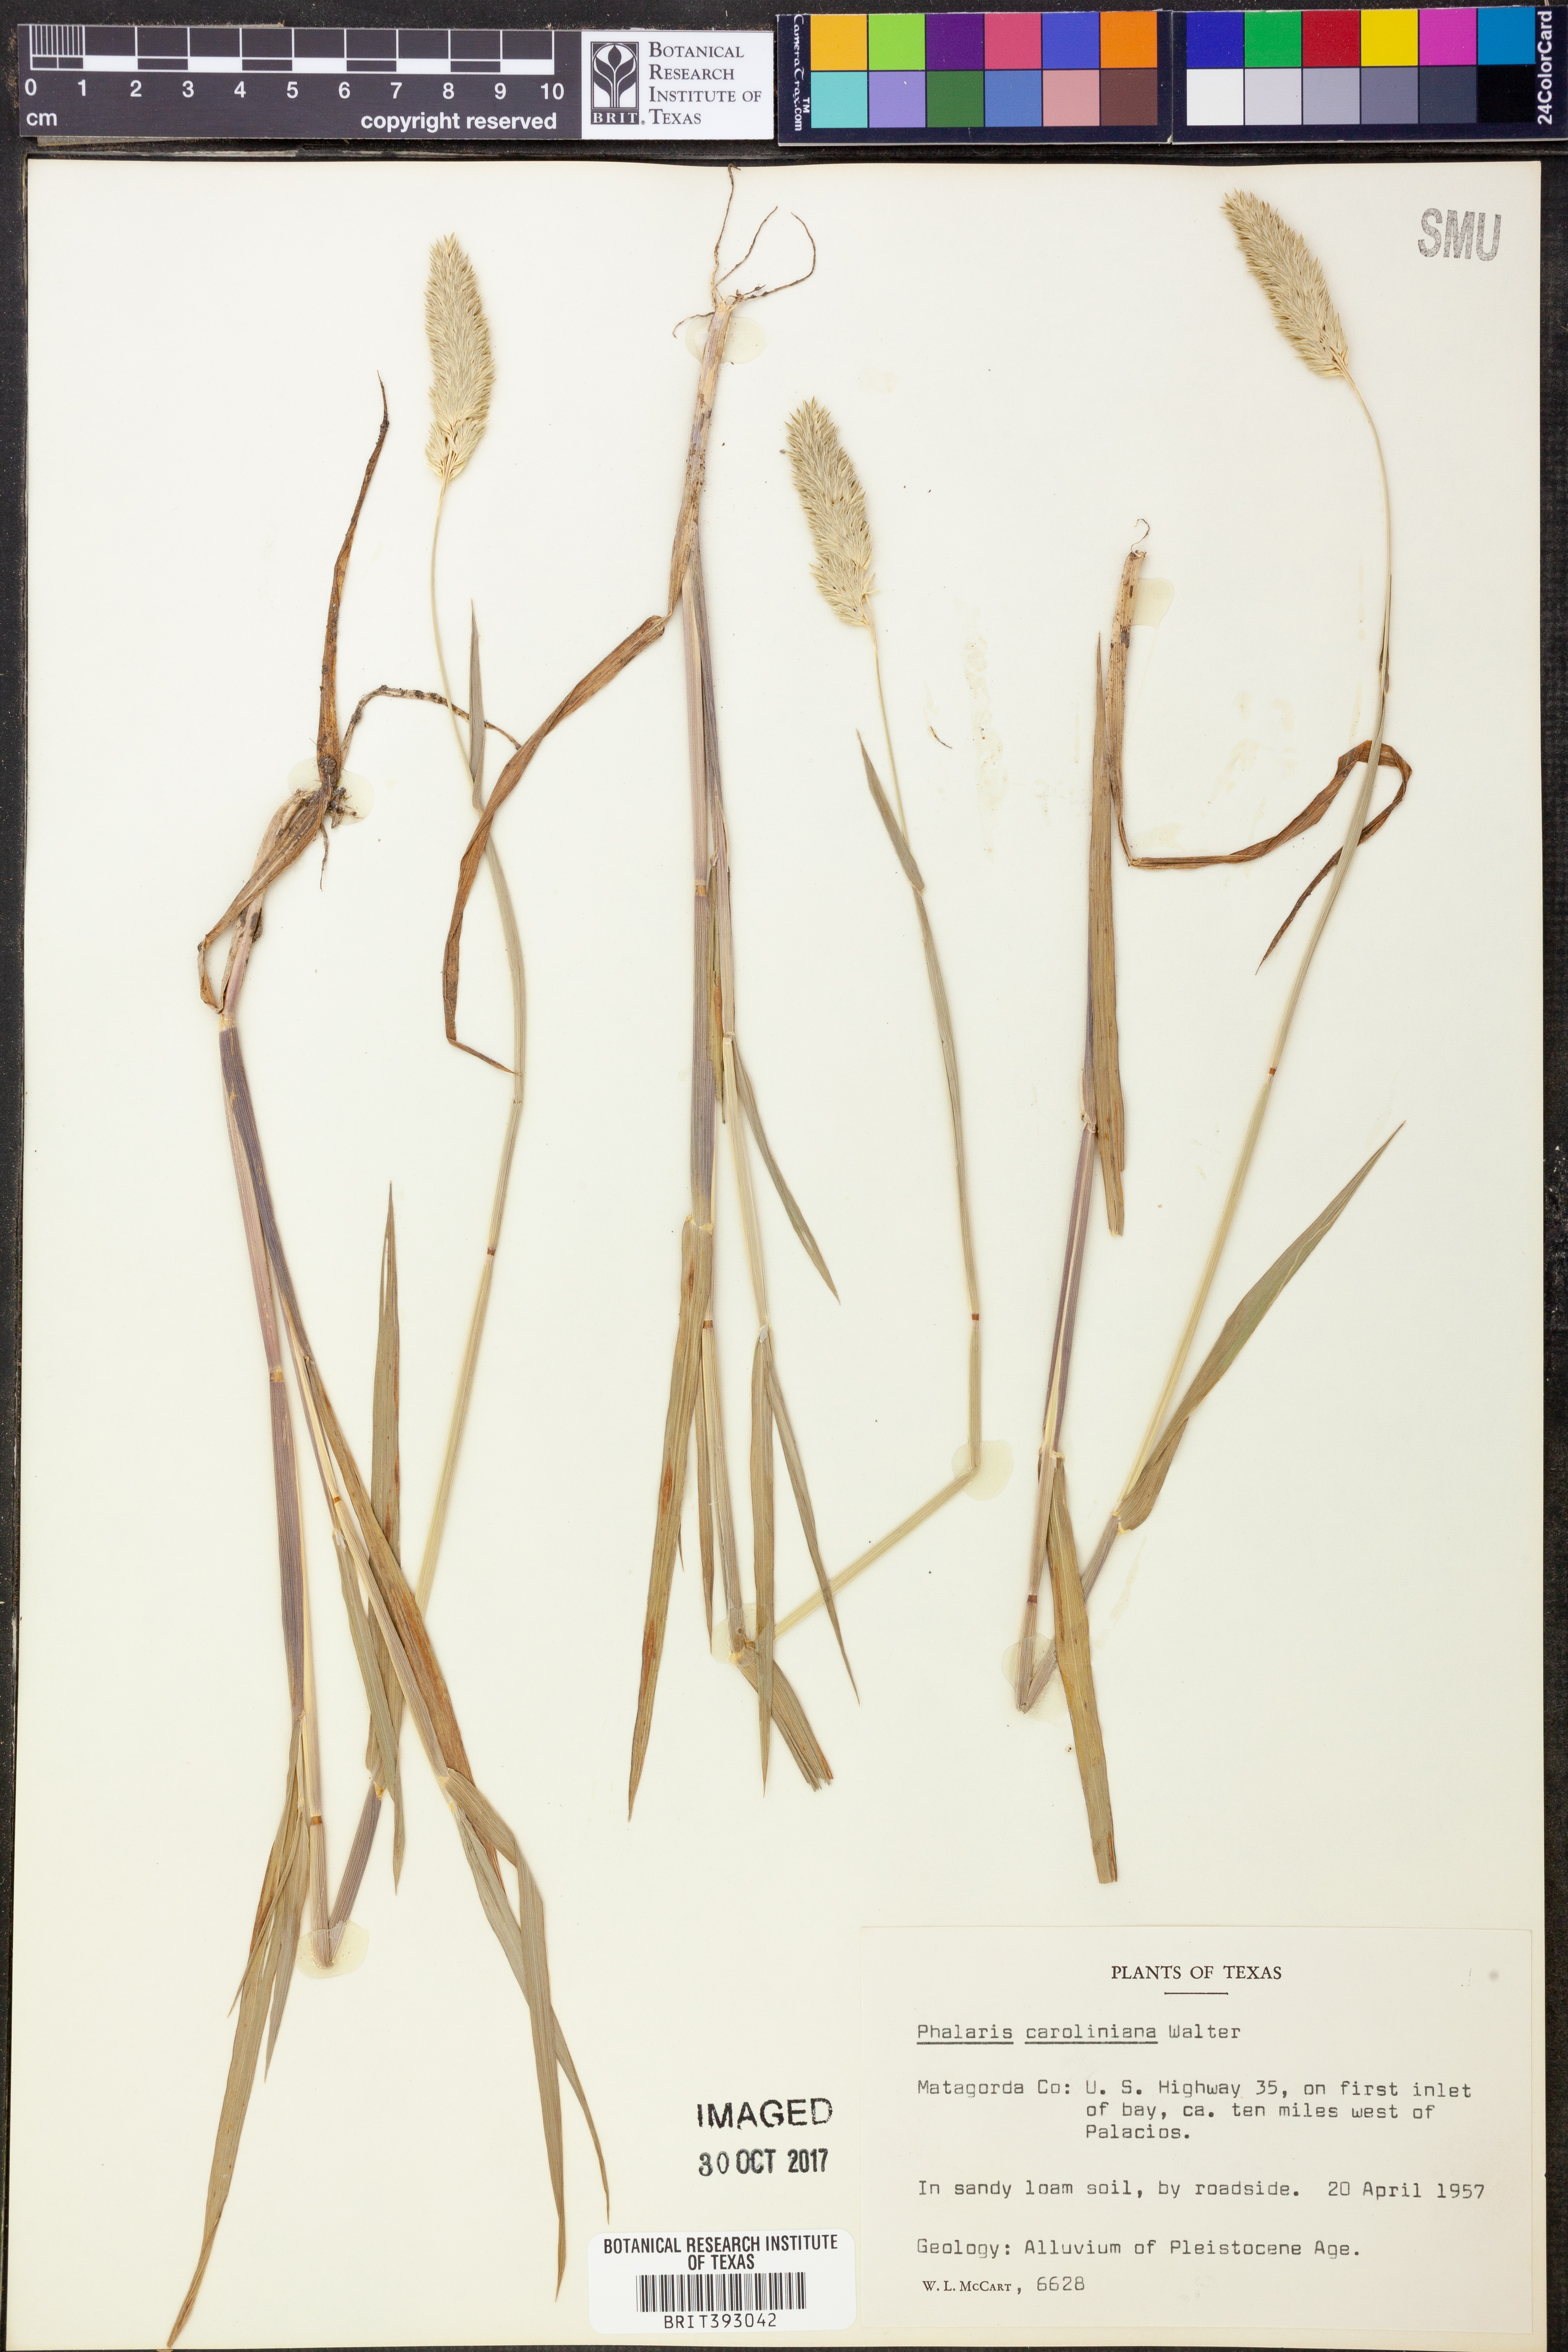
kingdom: Plantae
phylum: Tracheophyta
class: Liliopsida
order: Poales
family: Poaceae
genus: Phalaris
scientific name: Phalaris caroliniana
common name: May grass
